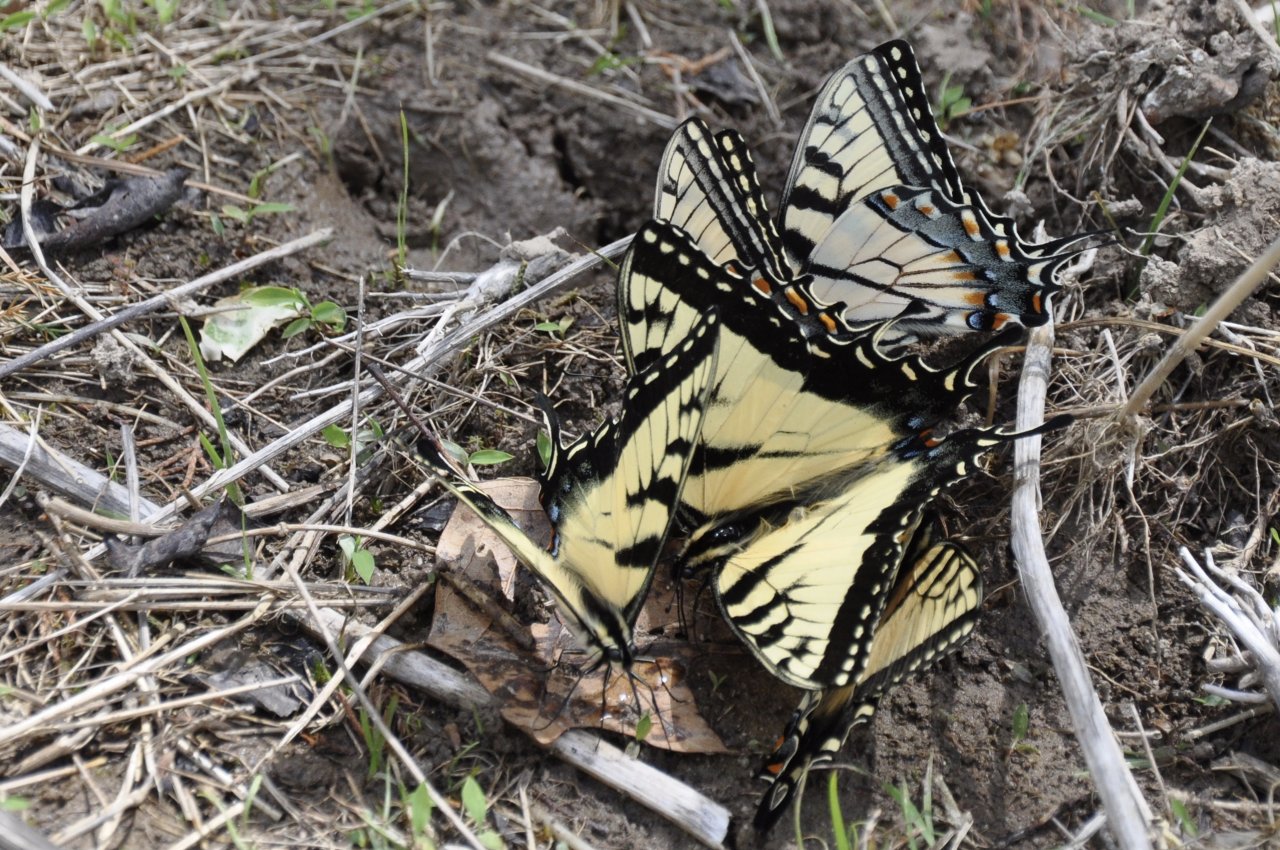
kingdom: Animalia
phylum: Arthropoda
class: Insecta
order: Lepidoptera
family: Papilionidae
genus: Pterourus
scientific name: Pterourus appalachiensis
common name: Appalachian Tiger Swallowtail
